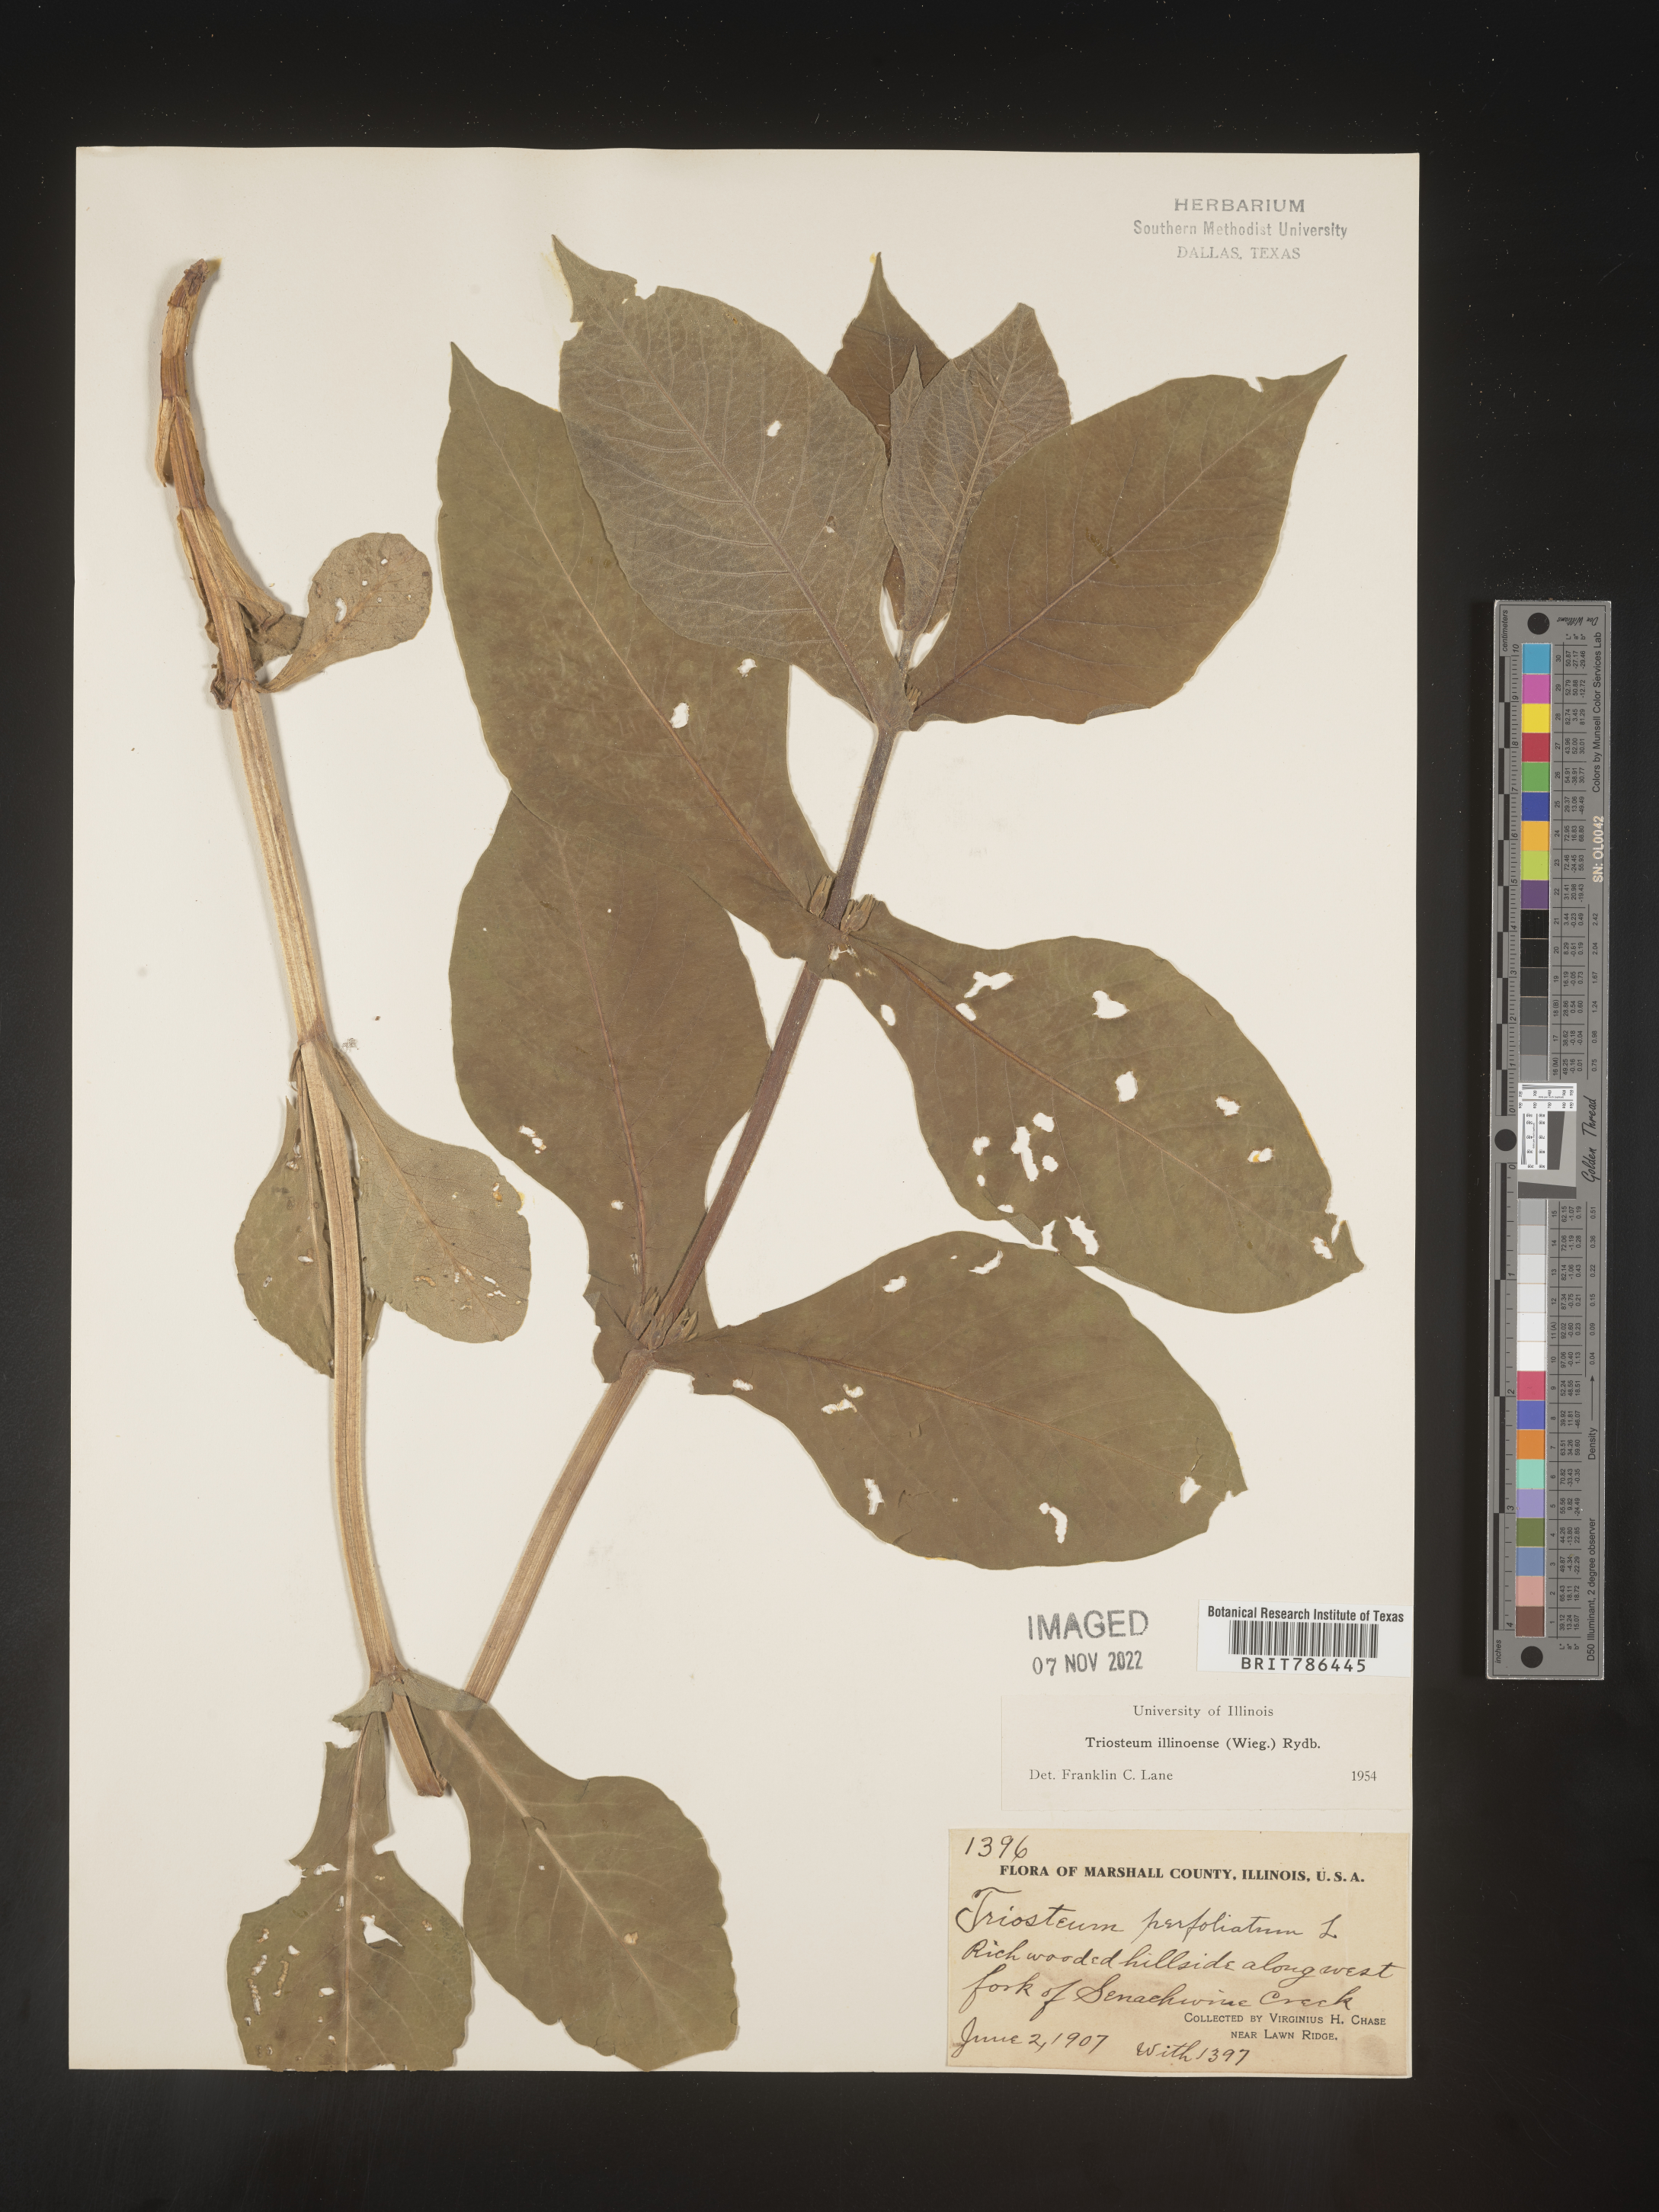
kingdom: Plantae
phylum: Tracheophyta
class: Magnoliopsida
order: Dipsacales
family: Caprifoliaceae
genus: Triosteum
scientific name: Triosteum aurantiacum
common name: Coffee tinker's-weed
